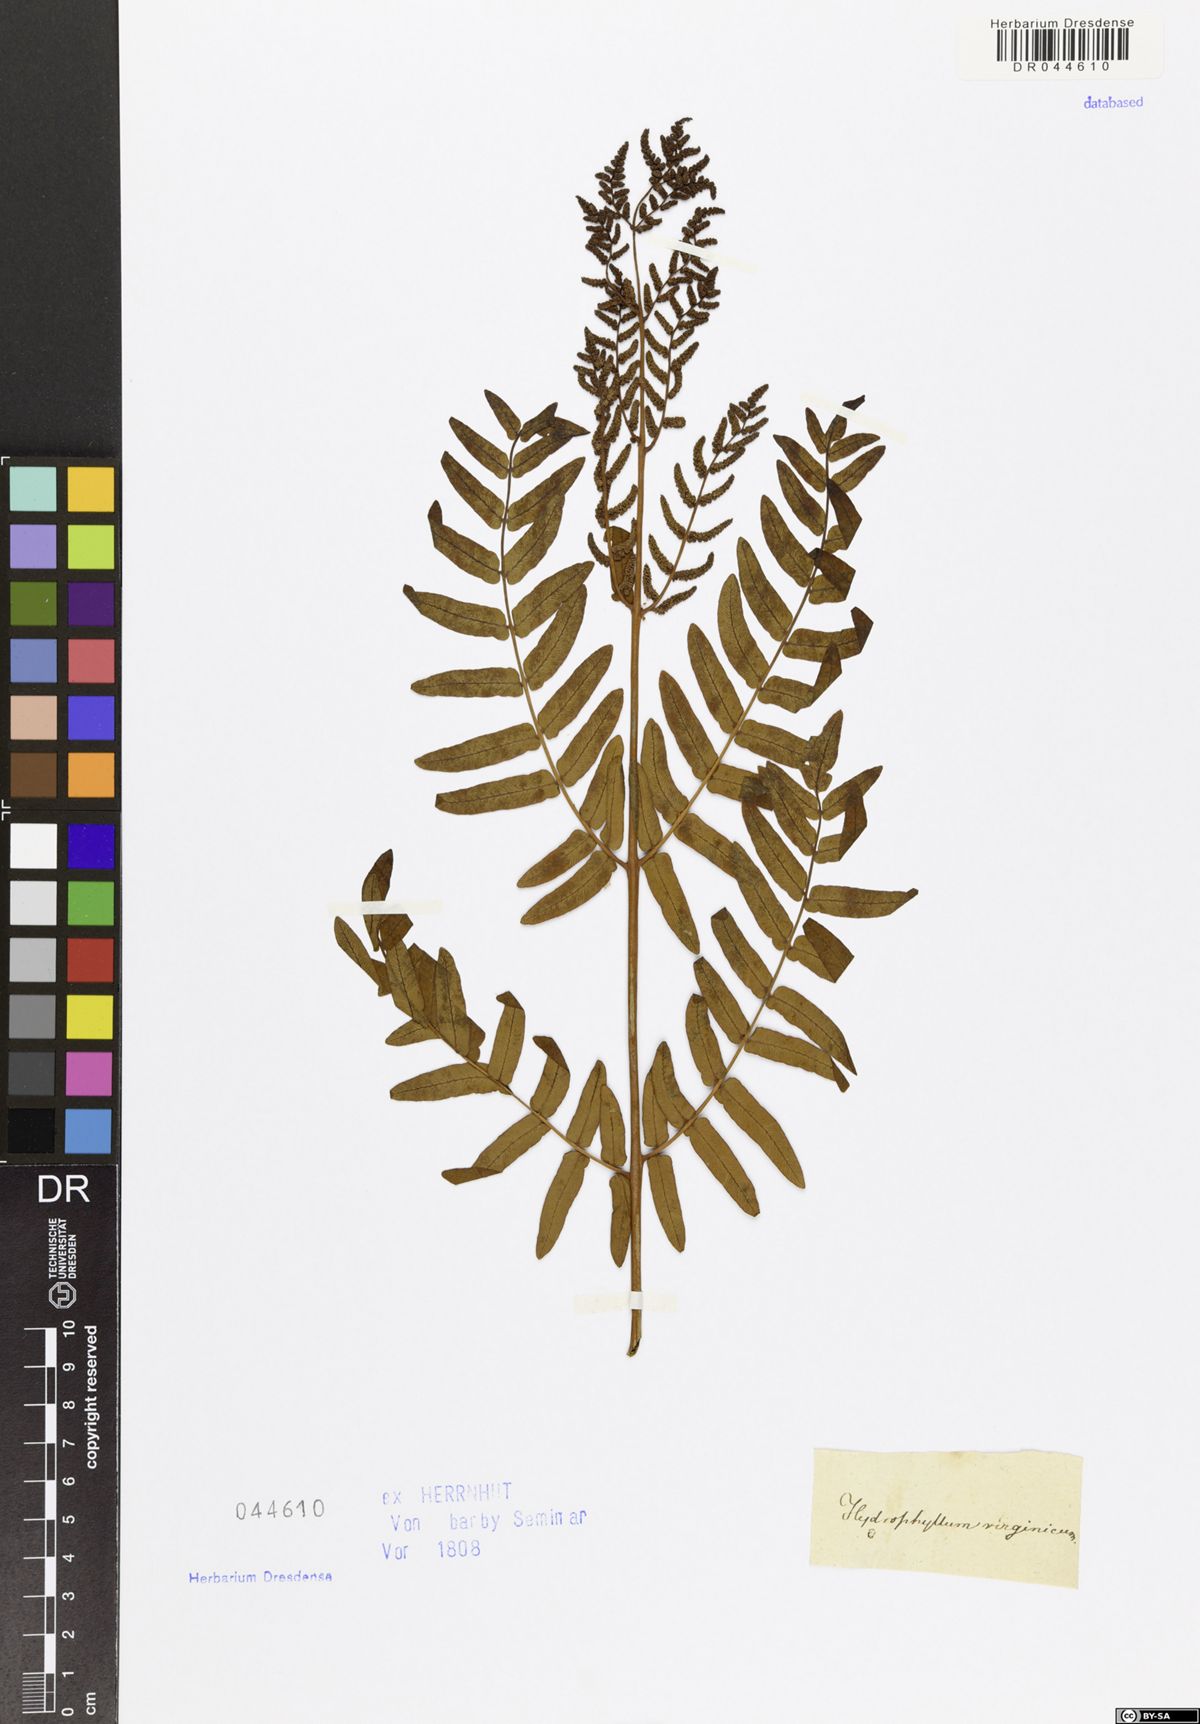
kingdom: Plantae
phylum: Tracheophyta
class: Polypodiopsida
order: Osmundales
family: Osmundaceae
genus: Osmunda
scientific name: Osmunda spectabilis
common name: American royal fern
